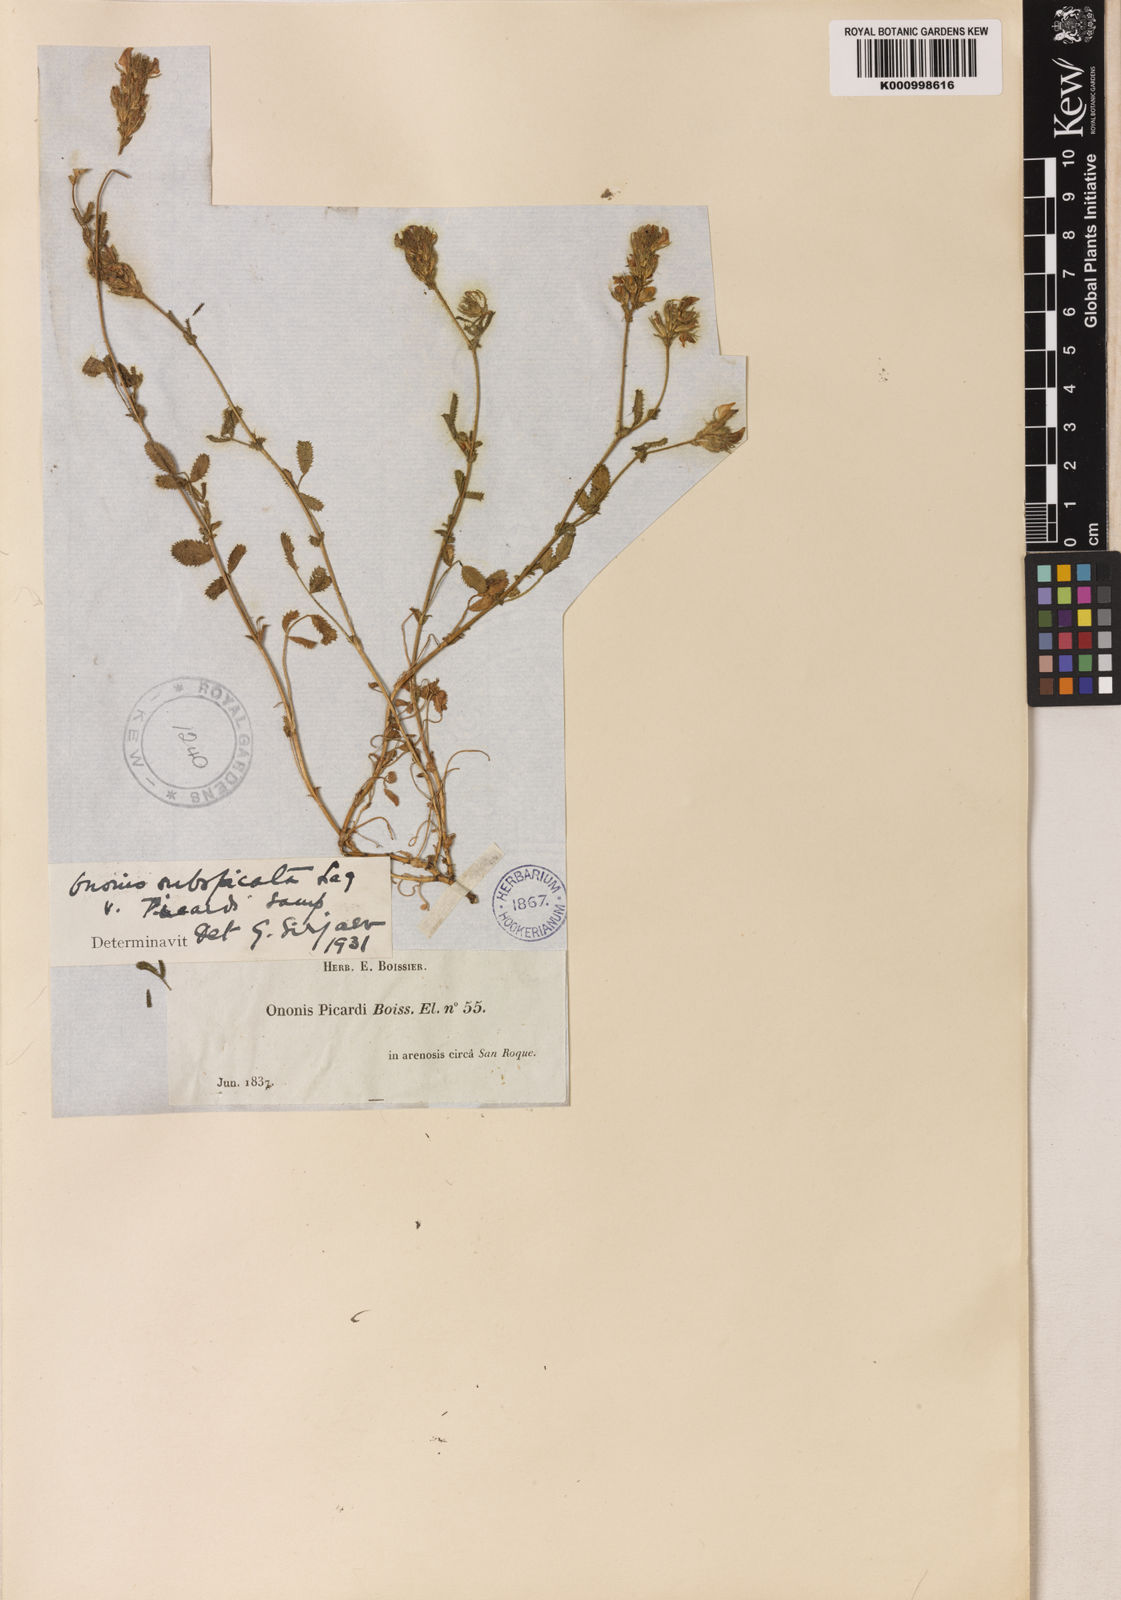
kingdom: Plantae
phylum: Tracheophyta
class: Magnoliopsida
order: Fabales
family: Fabaceae
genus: Ononis
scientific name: Ononis baetica
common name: Andalucian restharrow
